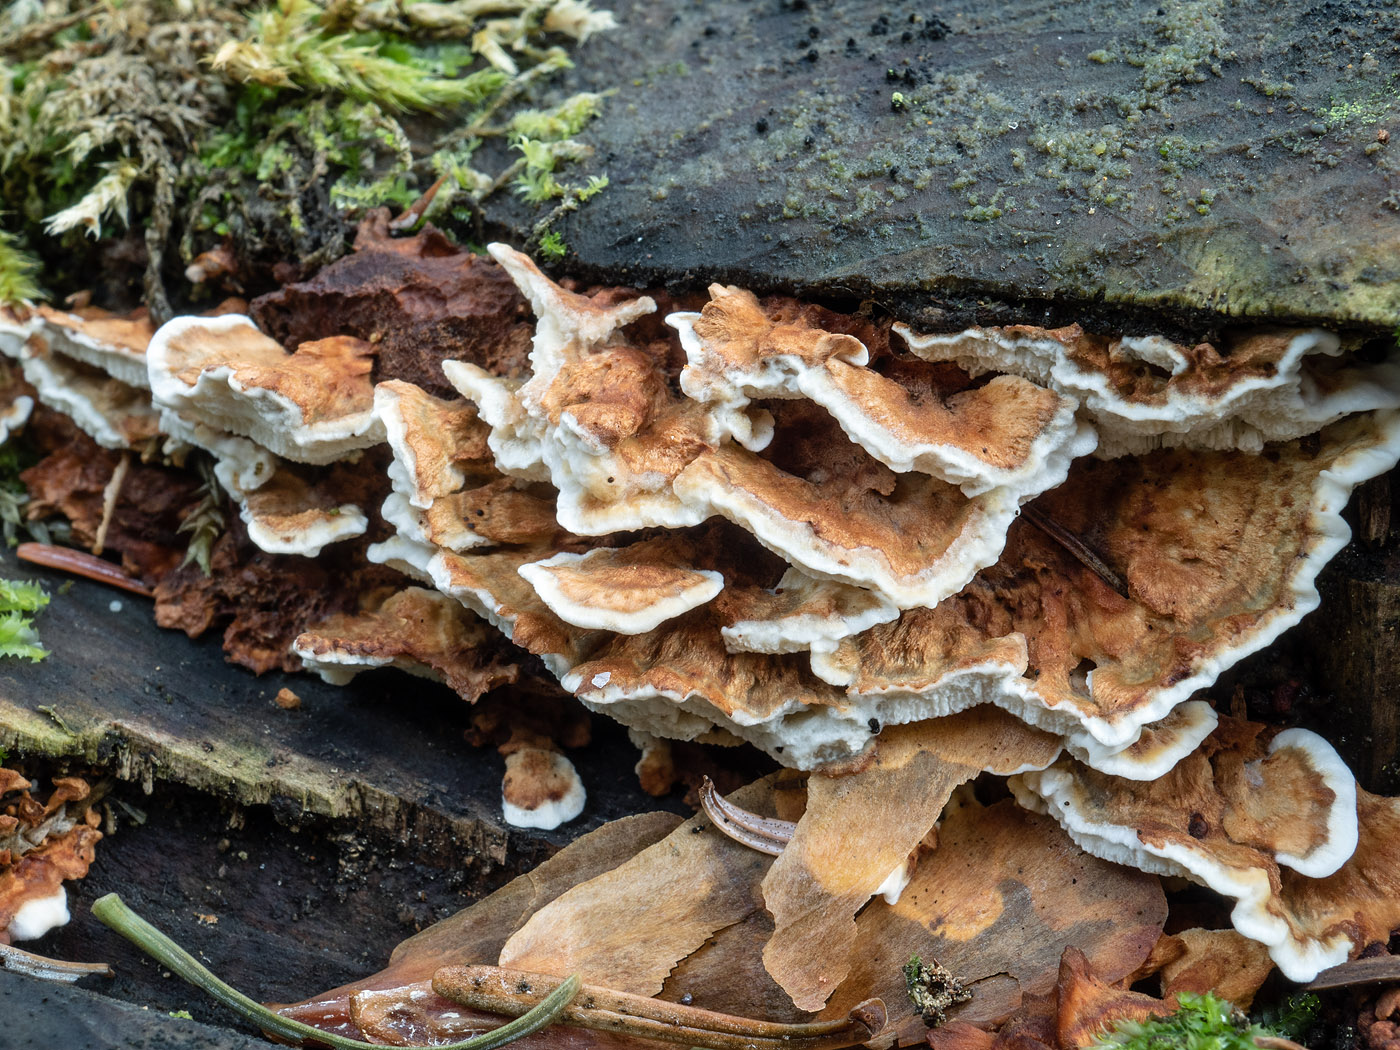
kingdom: Fungi
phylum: Basidiomycota
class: Agaricomycetes
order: Polyporales
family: Dacryobolaceae
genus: Oligoporus
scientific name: Oligoporus wakefieldiae
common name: række-kødporesvamp
